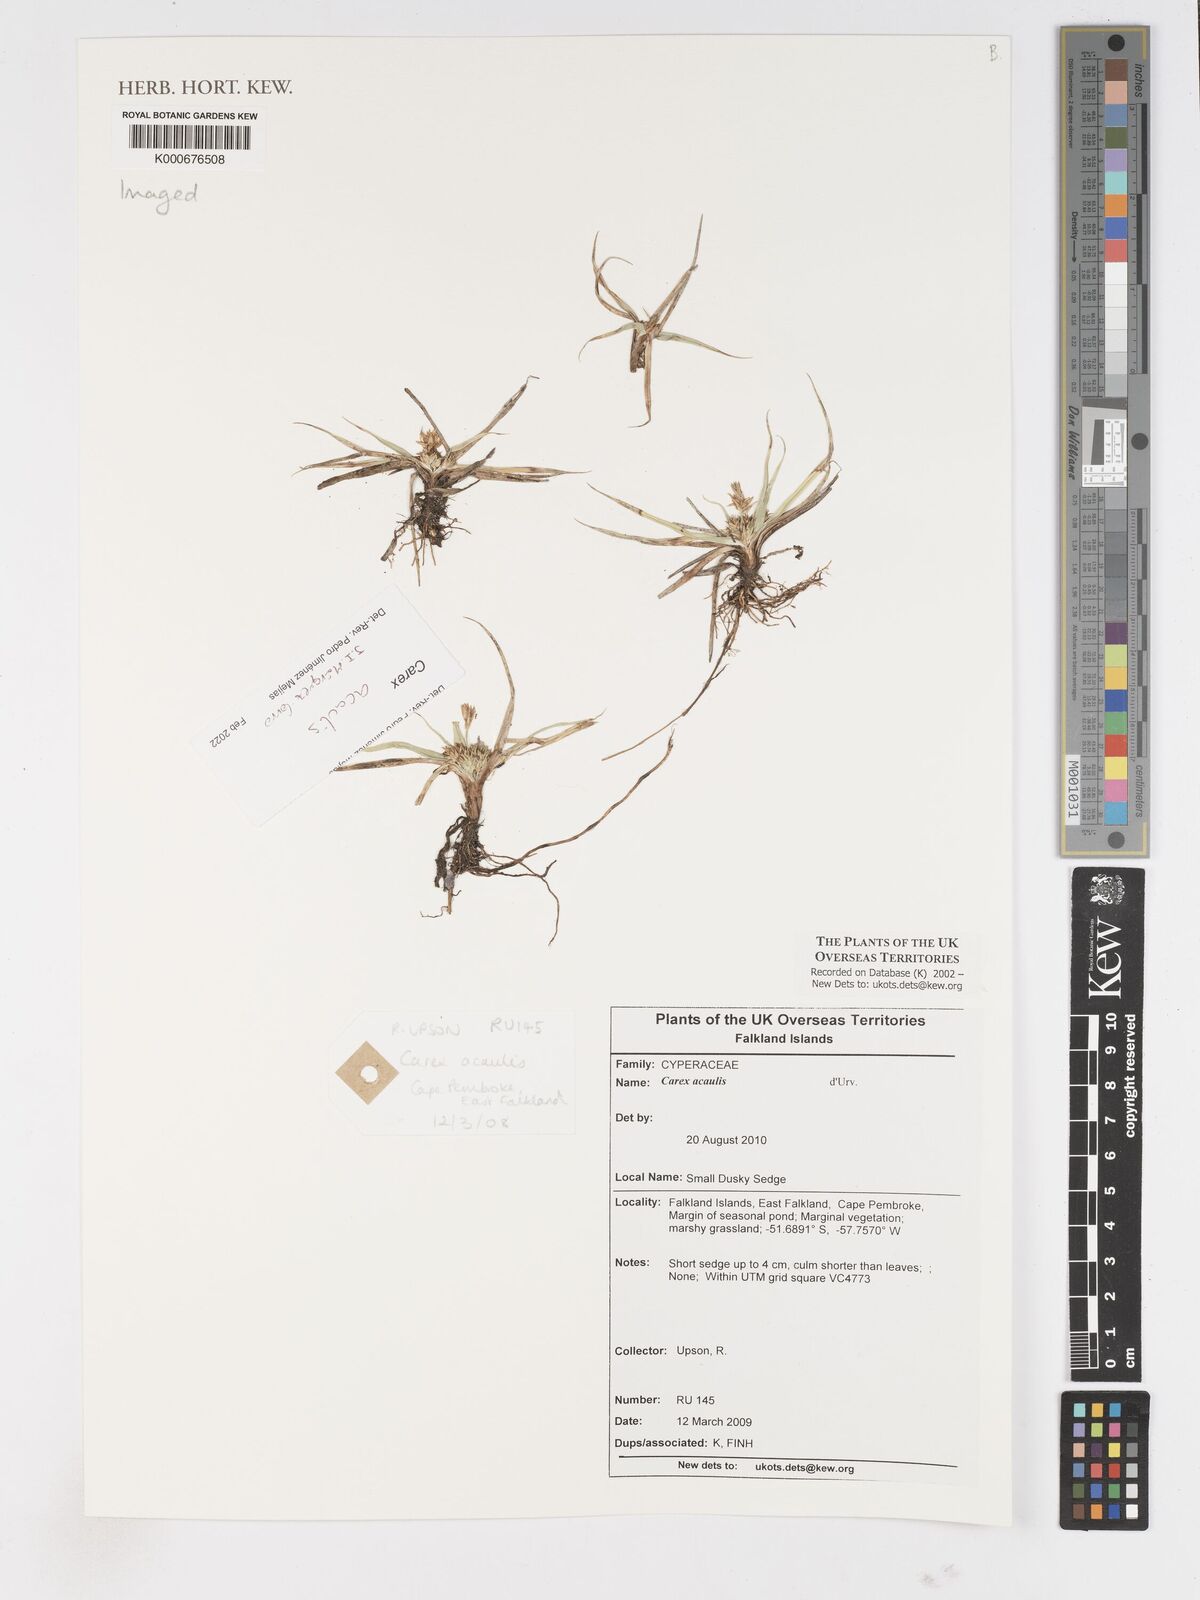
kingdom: Plantae
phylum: Tracheophyta
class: Liliopsida
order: Poales
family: Cyperaceae
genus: Carex
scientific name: Carex acaulis
